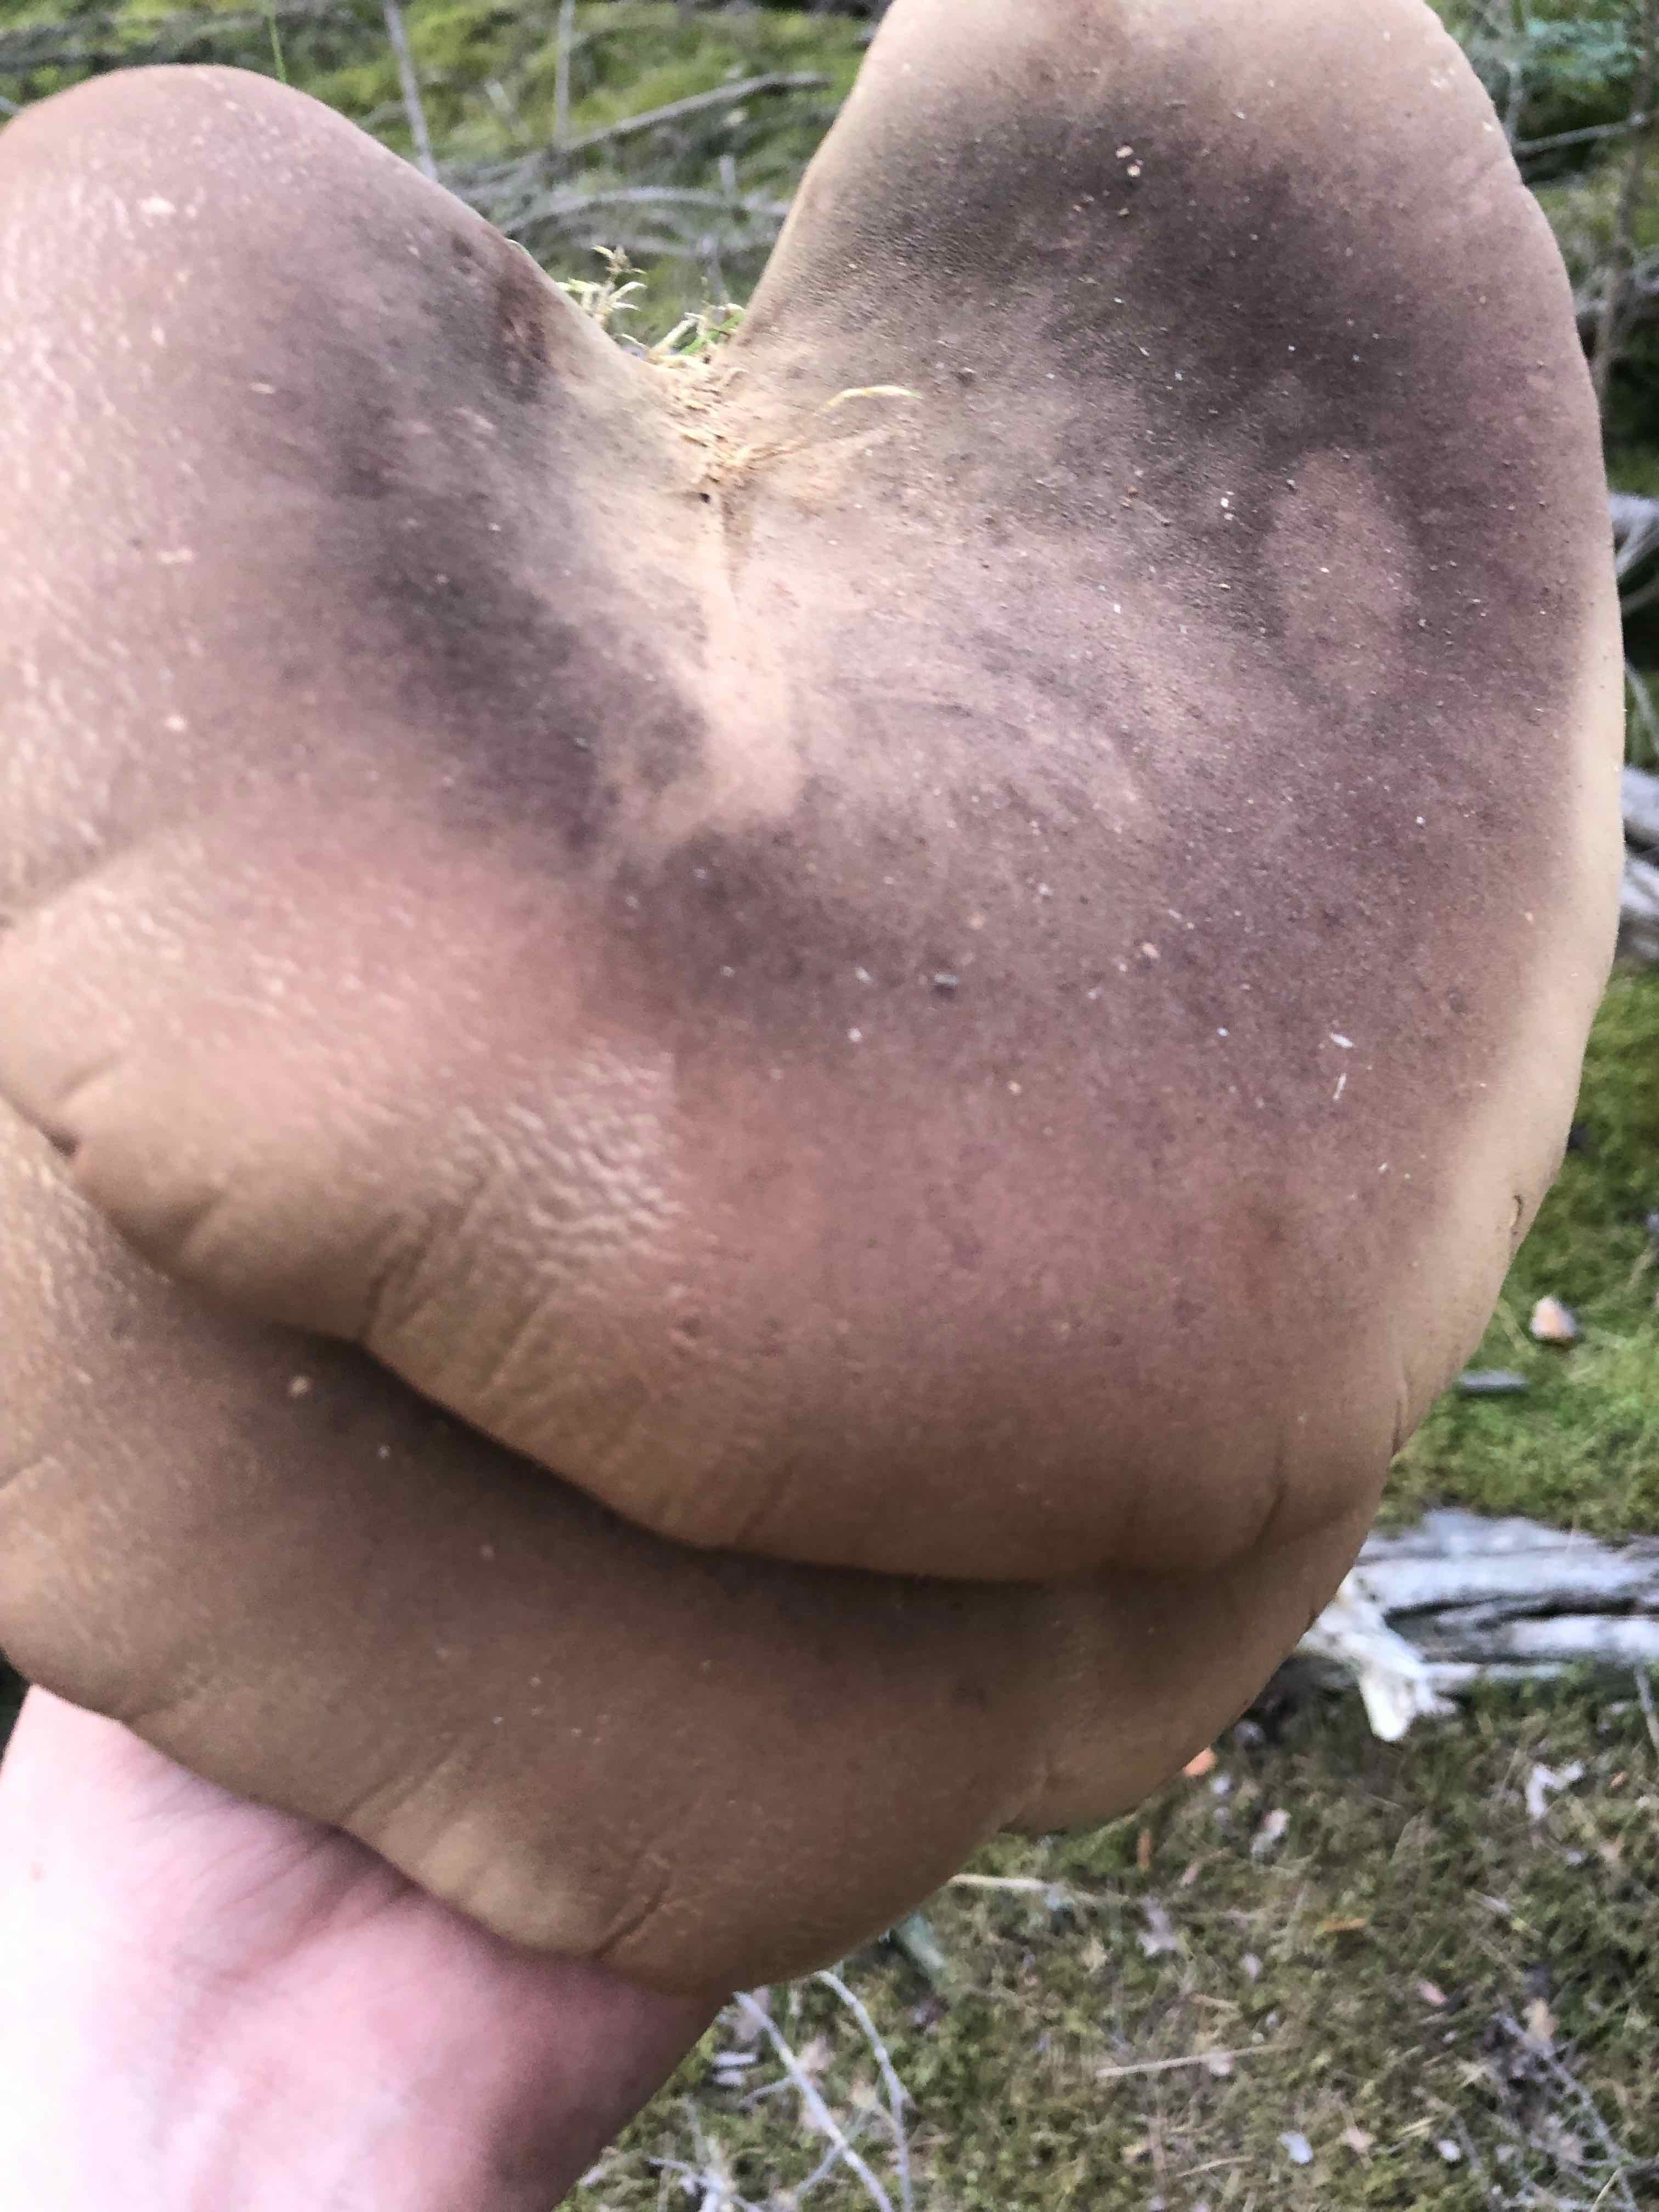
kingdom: Fungi
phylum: Basidiomycota
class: Agaricomycetes
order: Boletales
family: Tapinellaceae
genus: Tapinella
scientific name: Tapinella atrotomentosa
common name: sortfiltet viftesvamp
